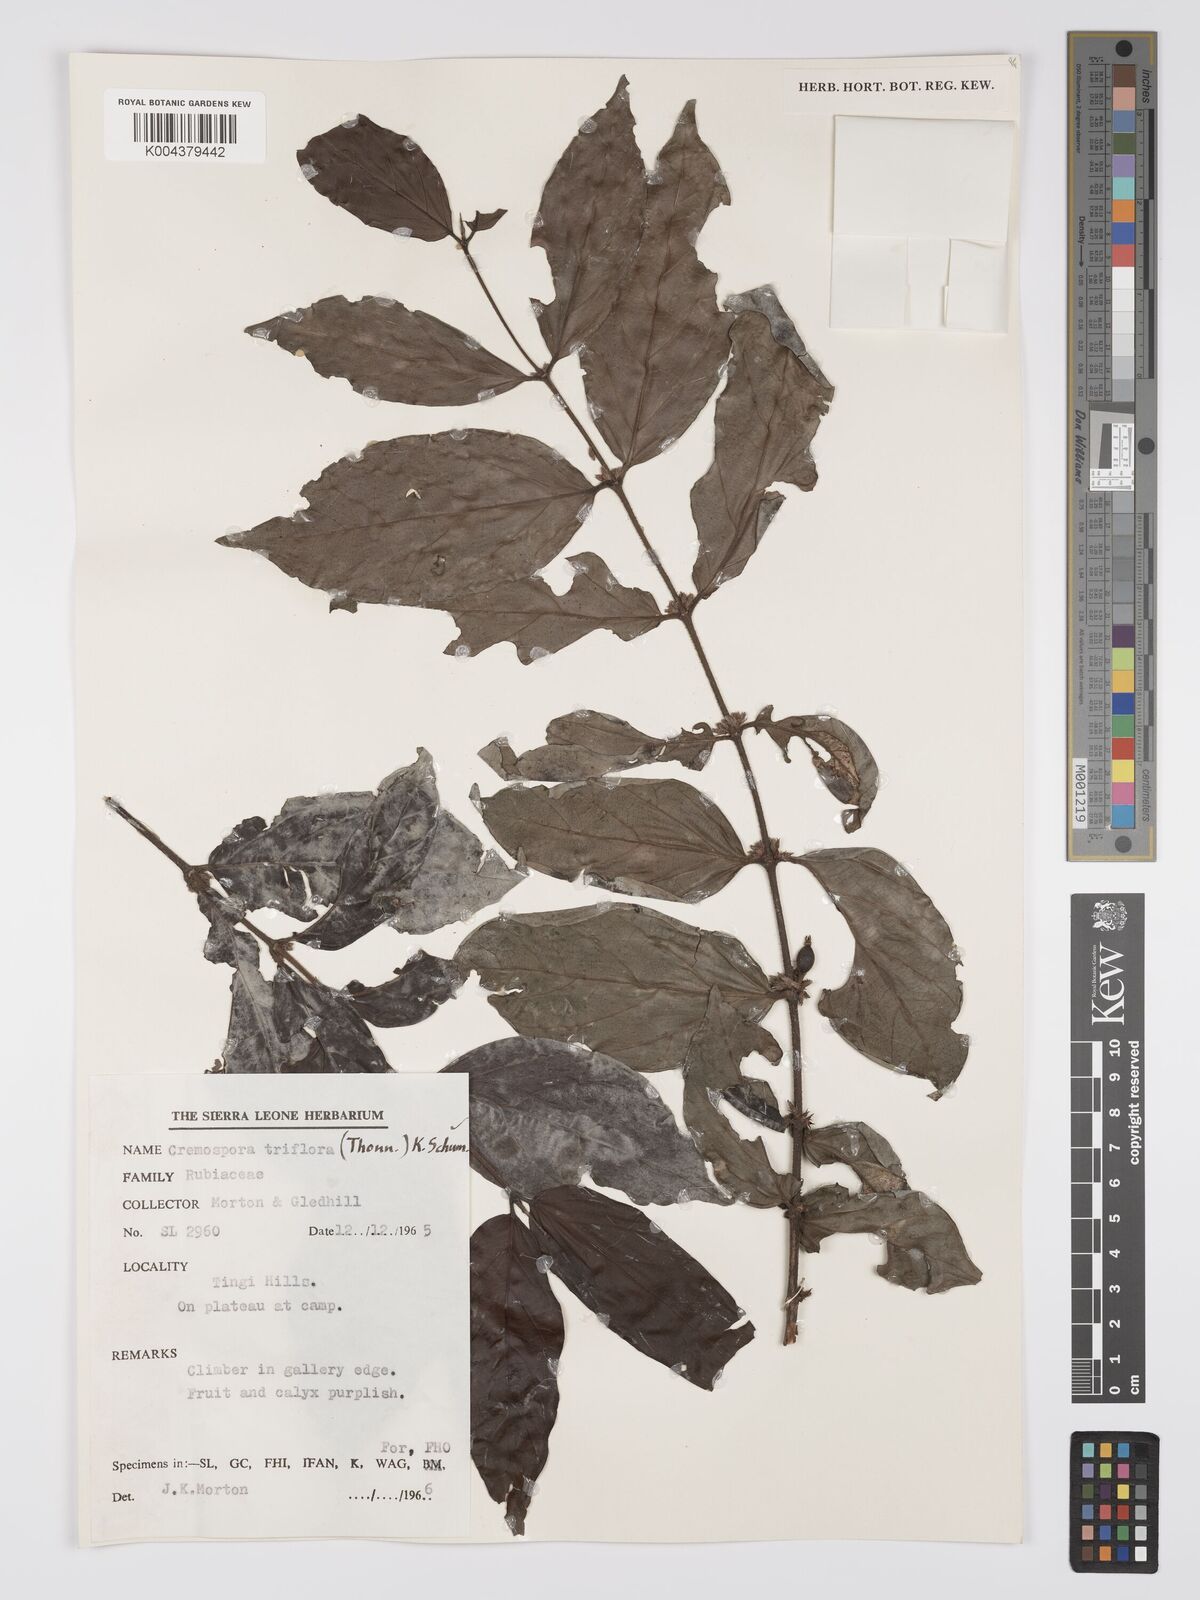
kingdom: Plantae
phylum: Tracheophyta
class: Magnoliopsida
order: Gentianales
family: Rubiaceae
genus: Cremaspora
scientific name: Cremaspora triflora
